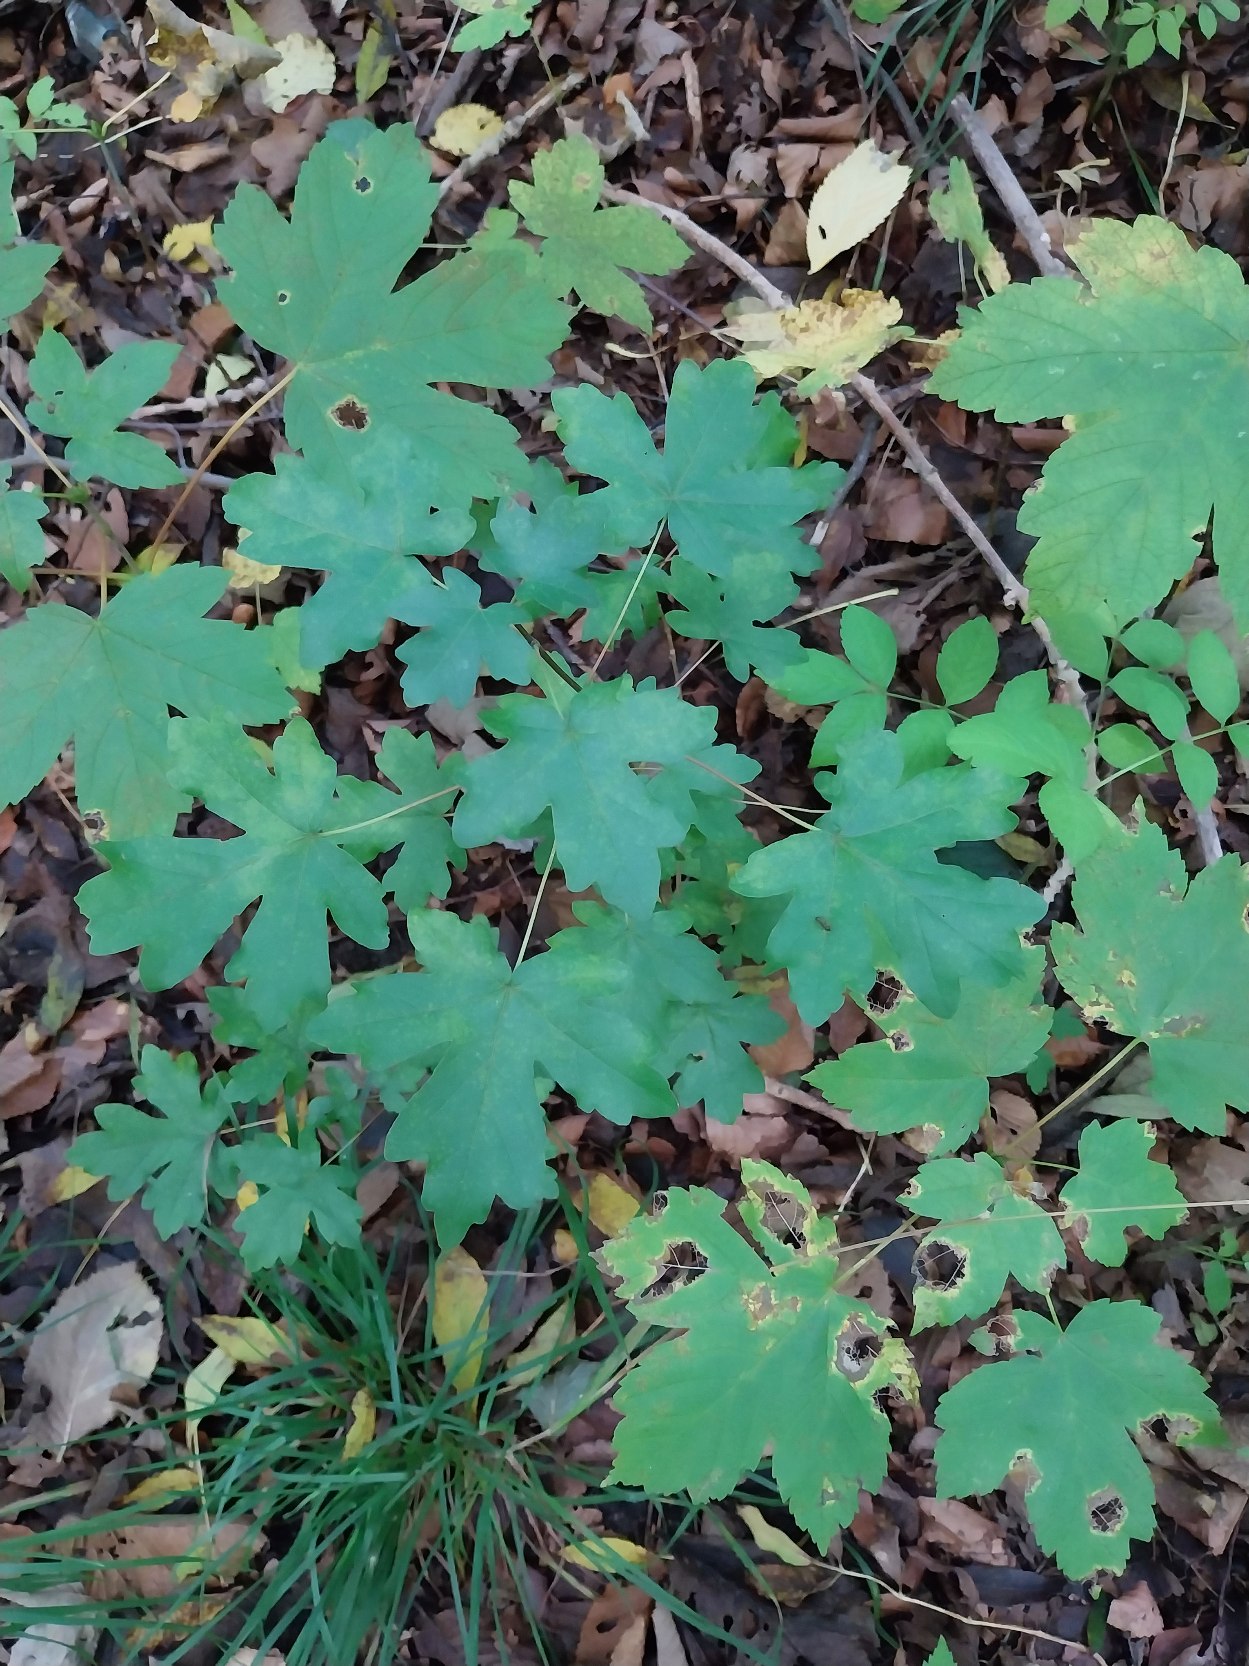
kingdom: Plantae
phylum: Tracheophyta
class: Magnoliopsida
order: Sapindales
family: Sapindaceae
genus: Acer
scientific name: Acer campestre
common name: Navr
